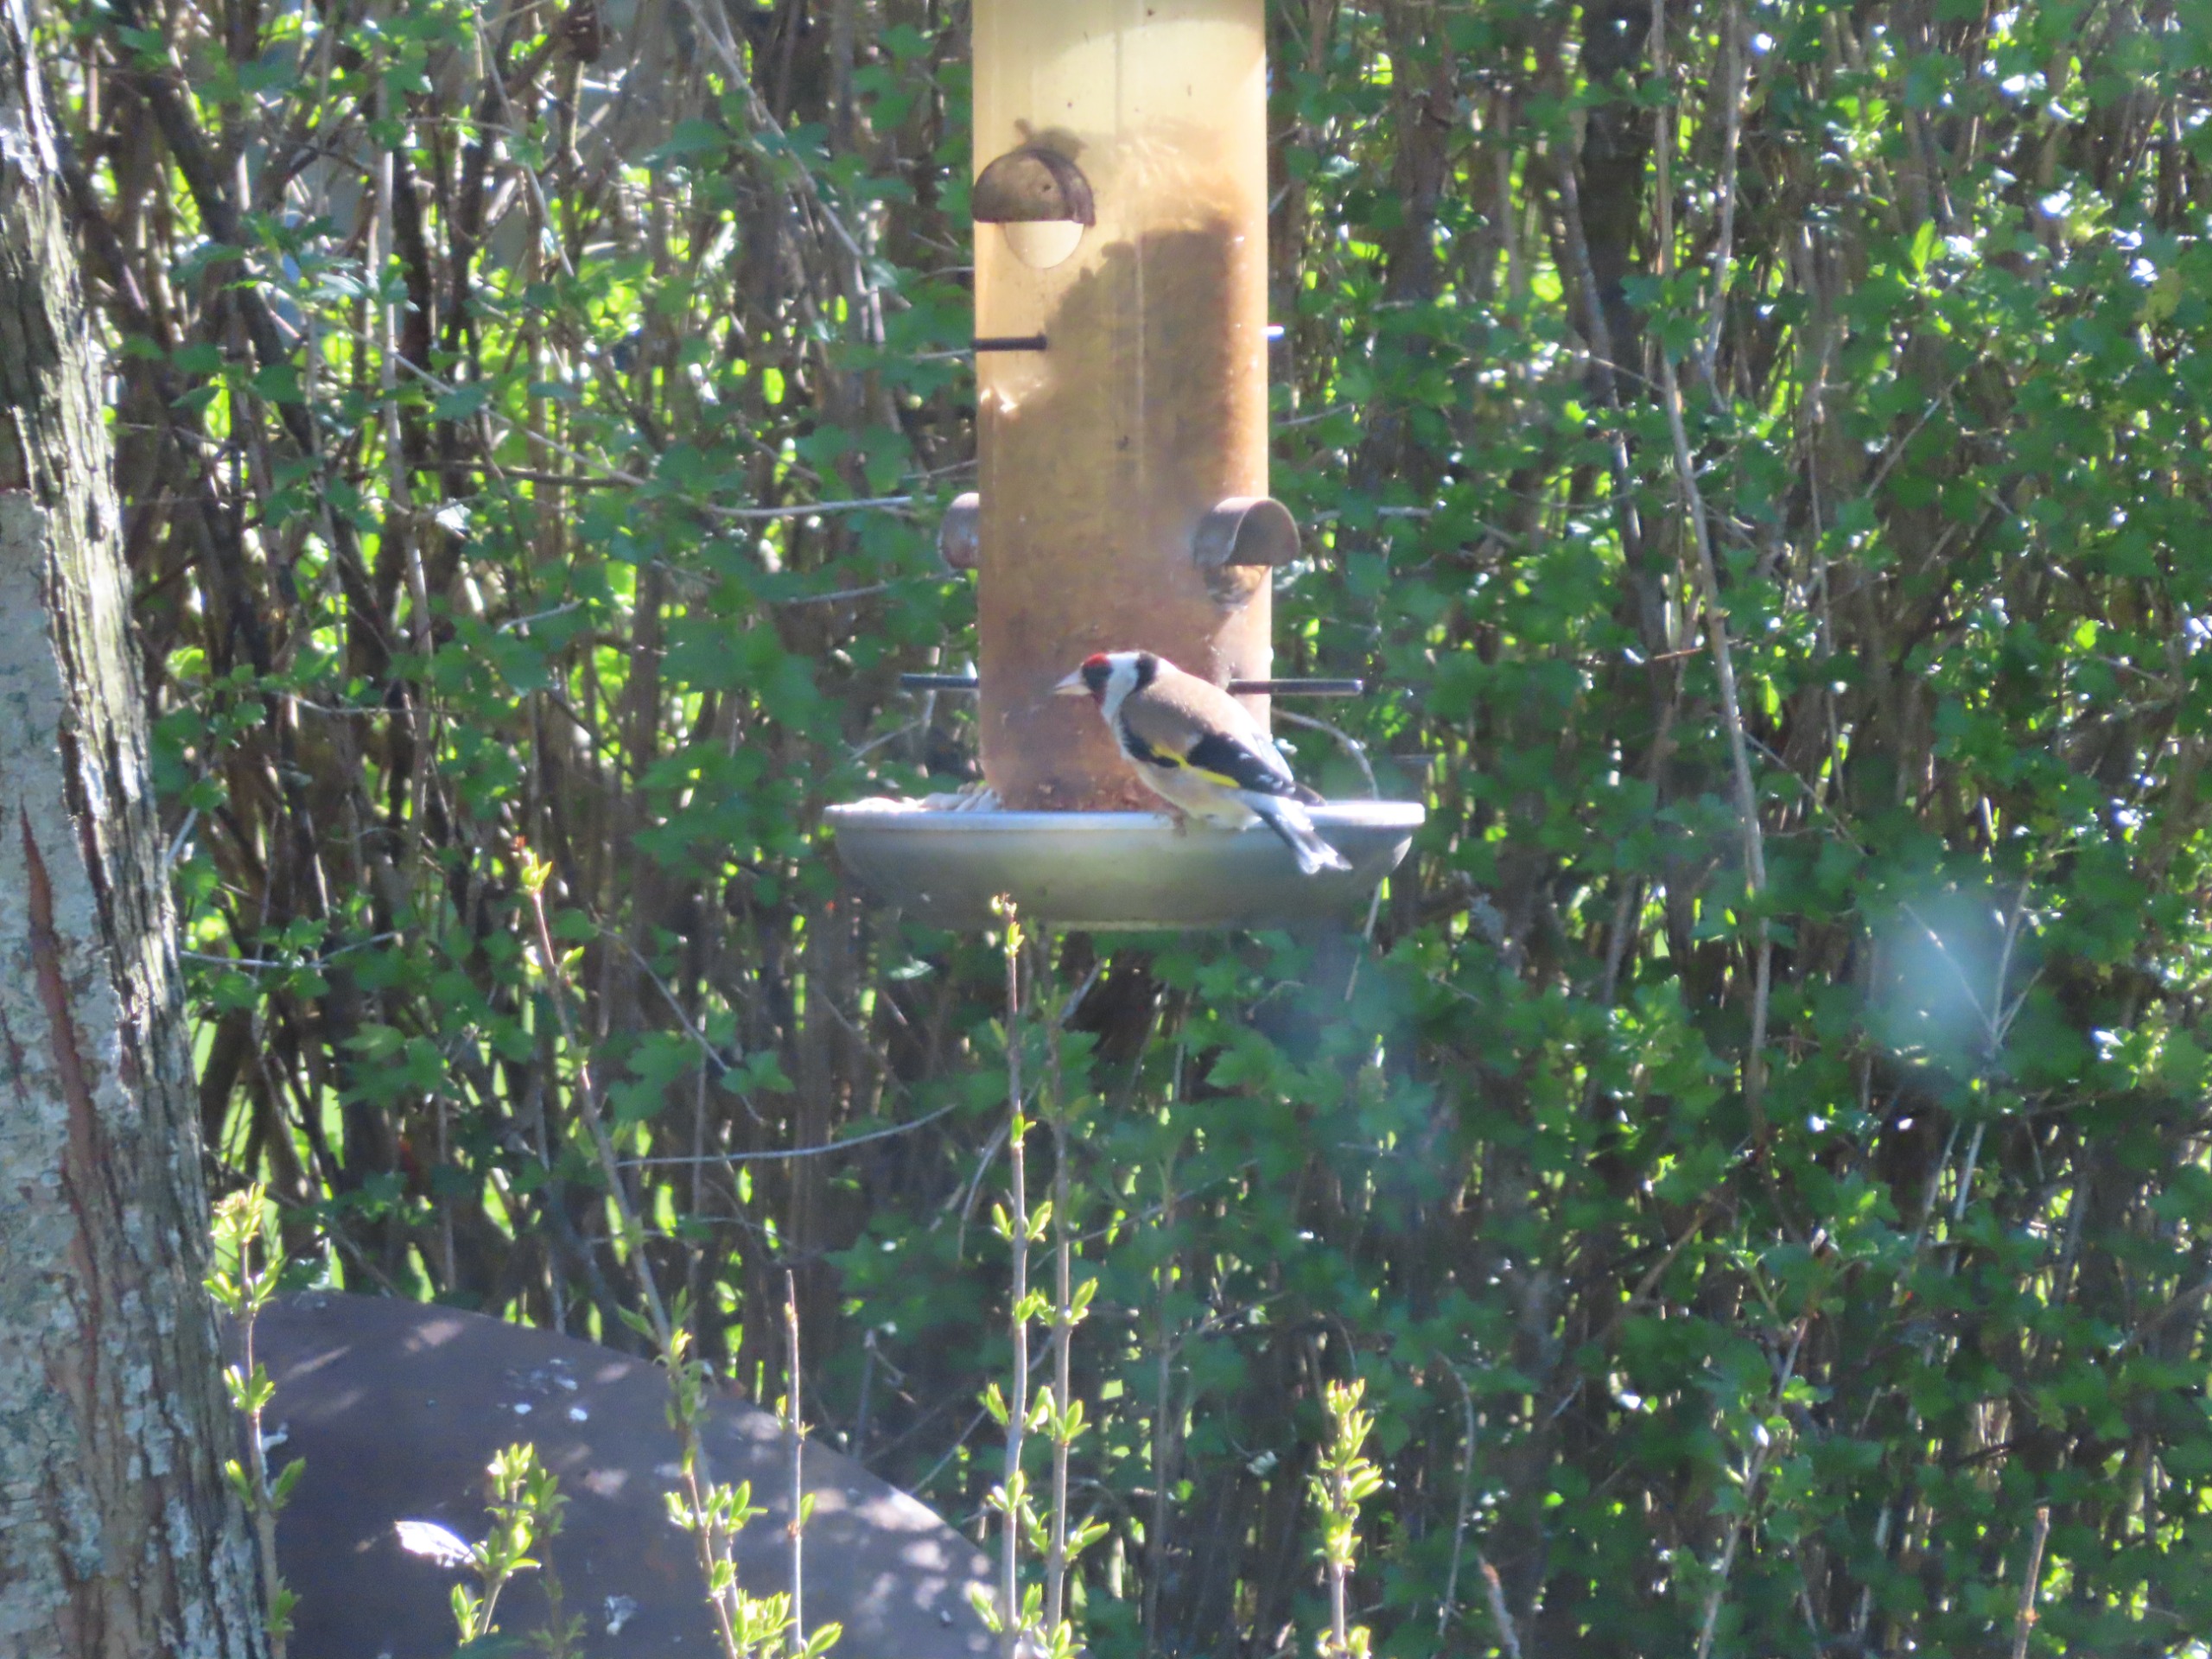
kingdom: Animalia
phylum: Chordata
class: Aves
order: Passeriformes
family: Fringillidae
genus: Carduelis
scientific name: Carduelis carduelis
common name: Stillits
